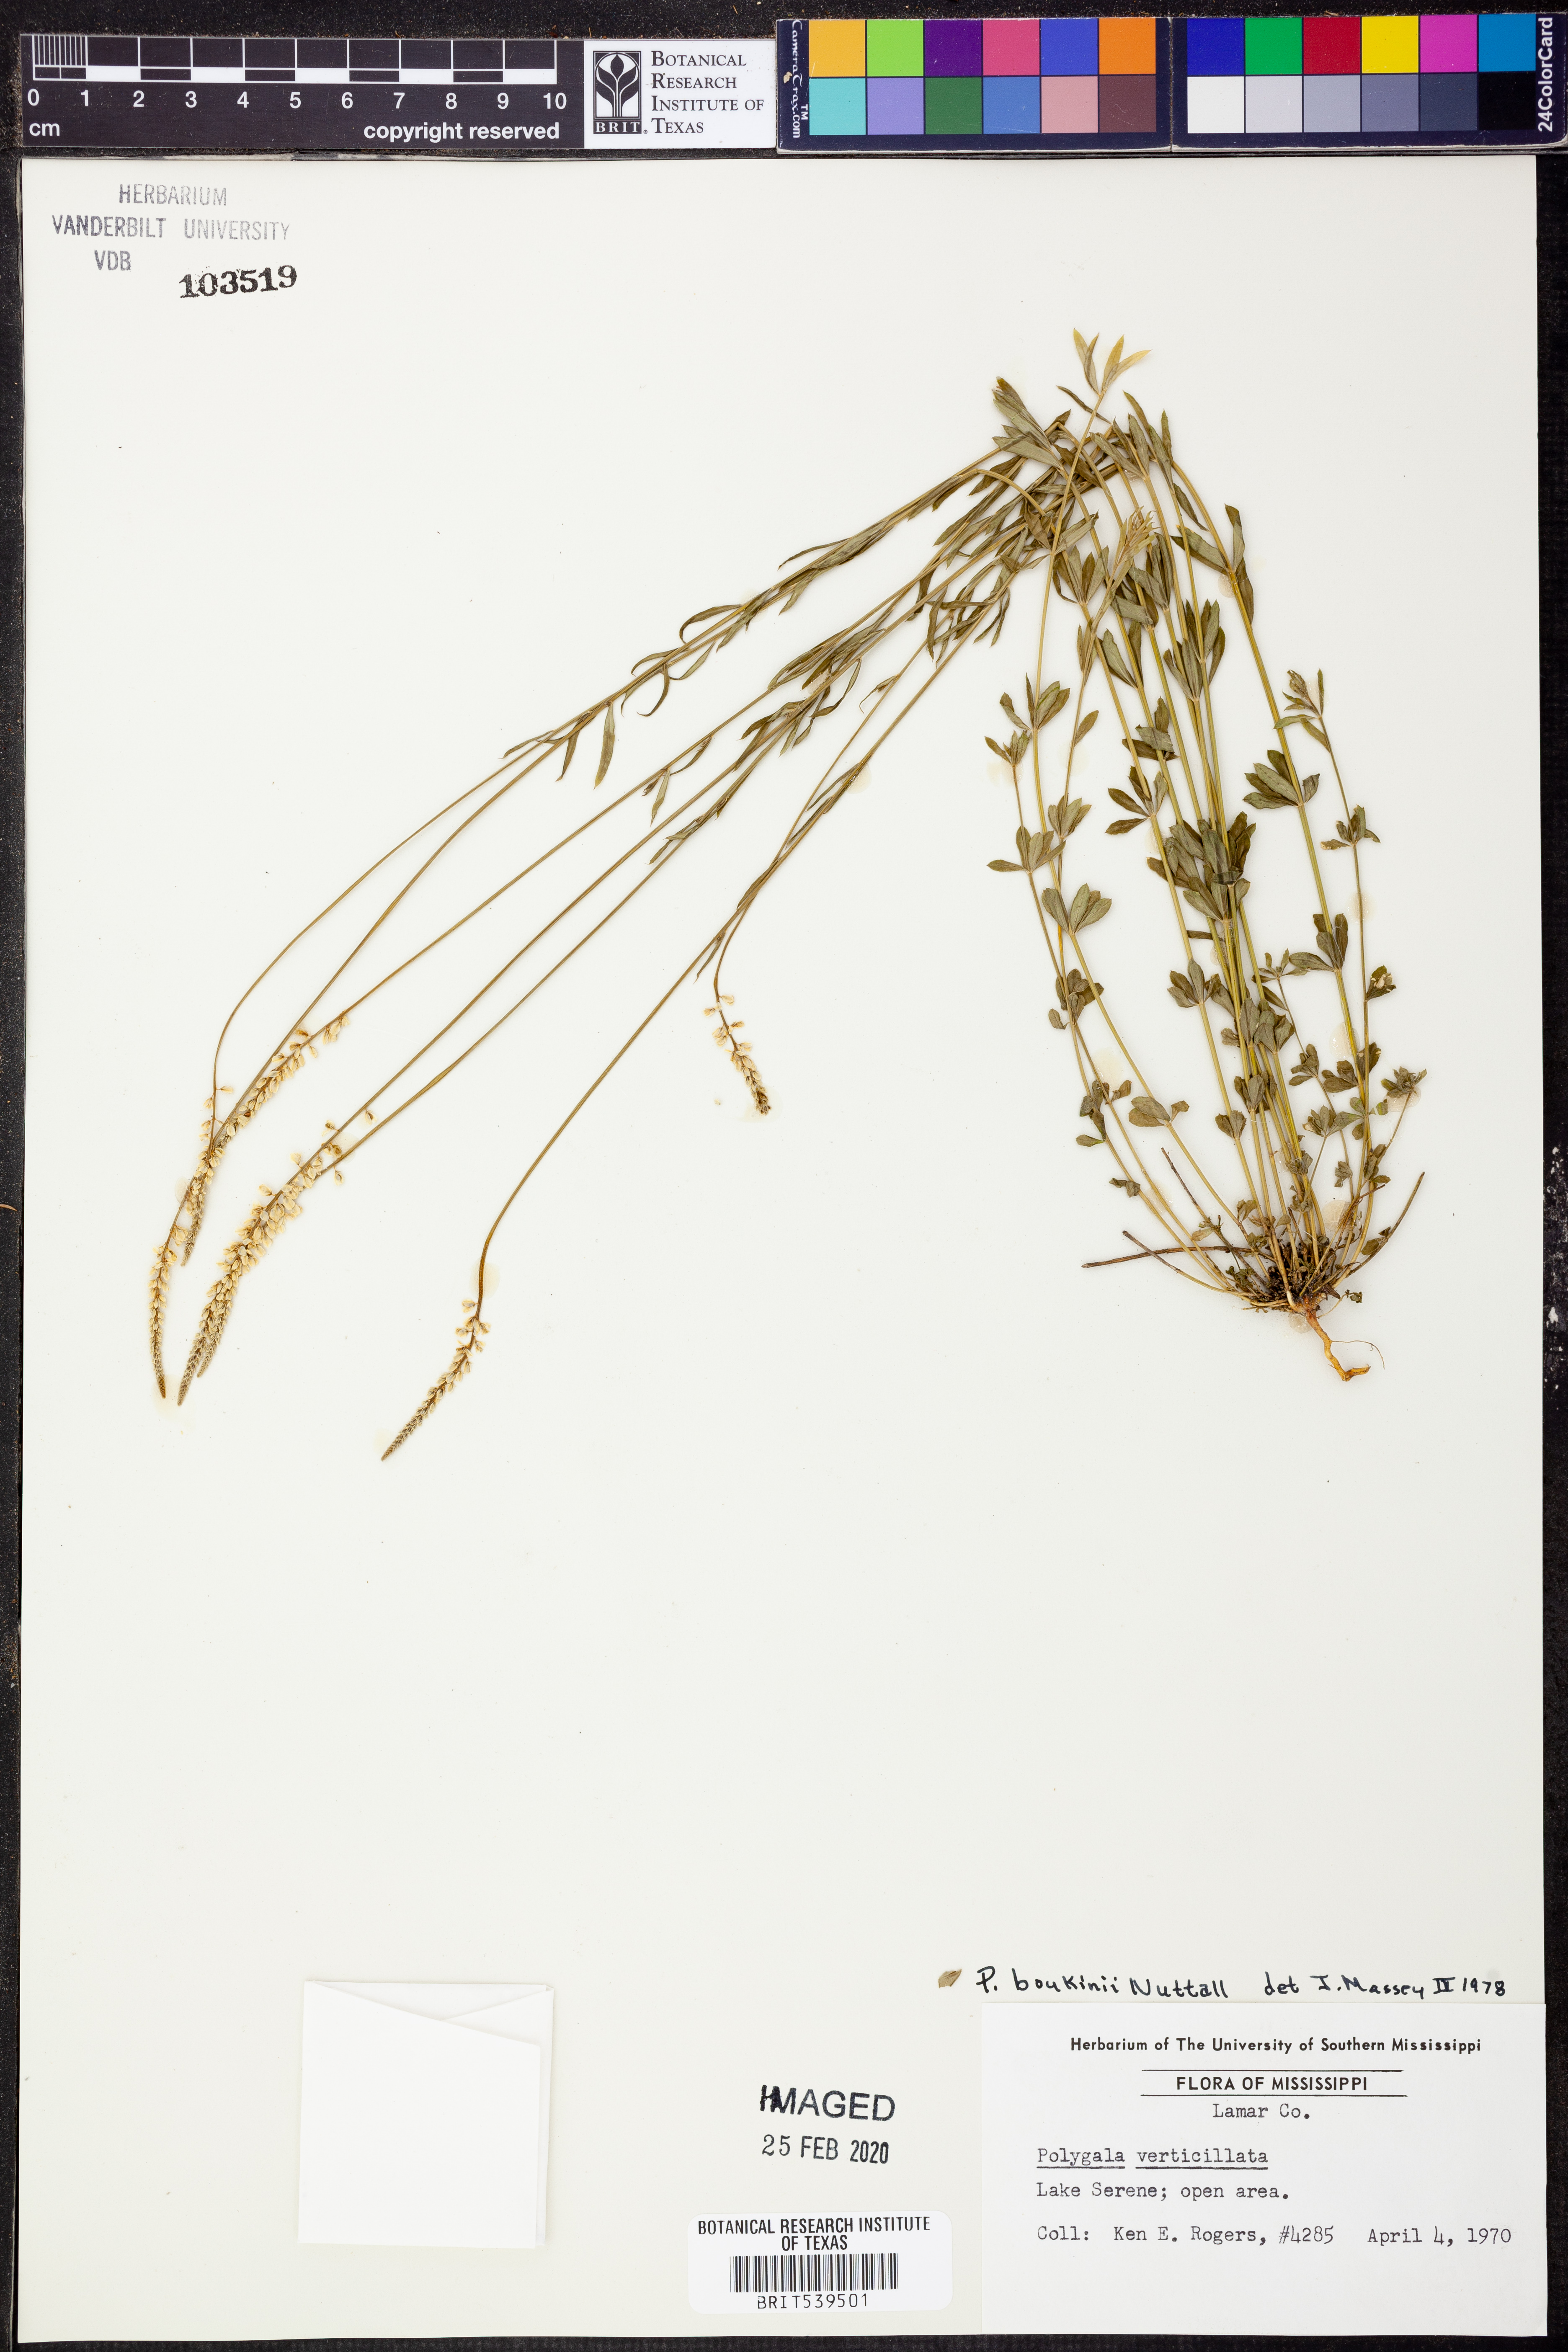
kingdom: Plantae
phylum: Tracheophyta
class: Magnoliopsida
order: Fabales
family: Polygalaceae
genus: Polygala
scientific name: Polygala boykinii
